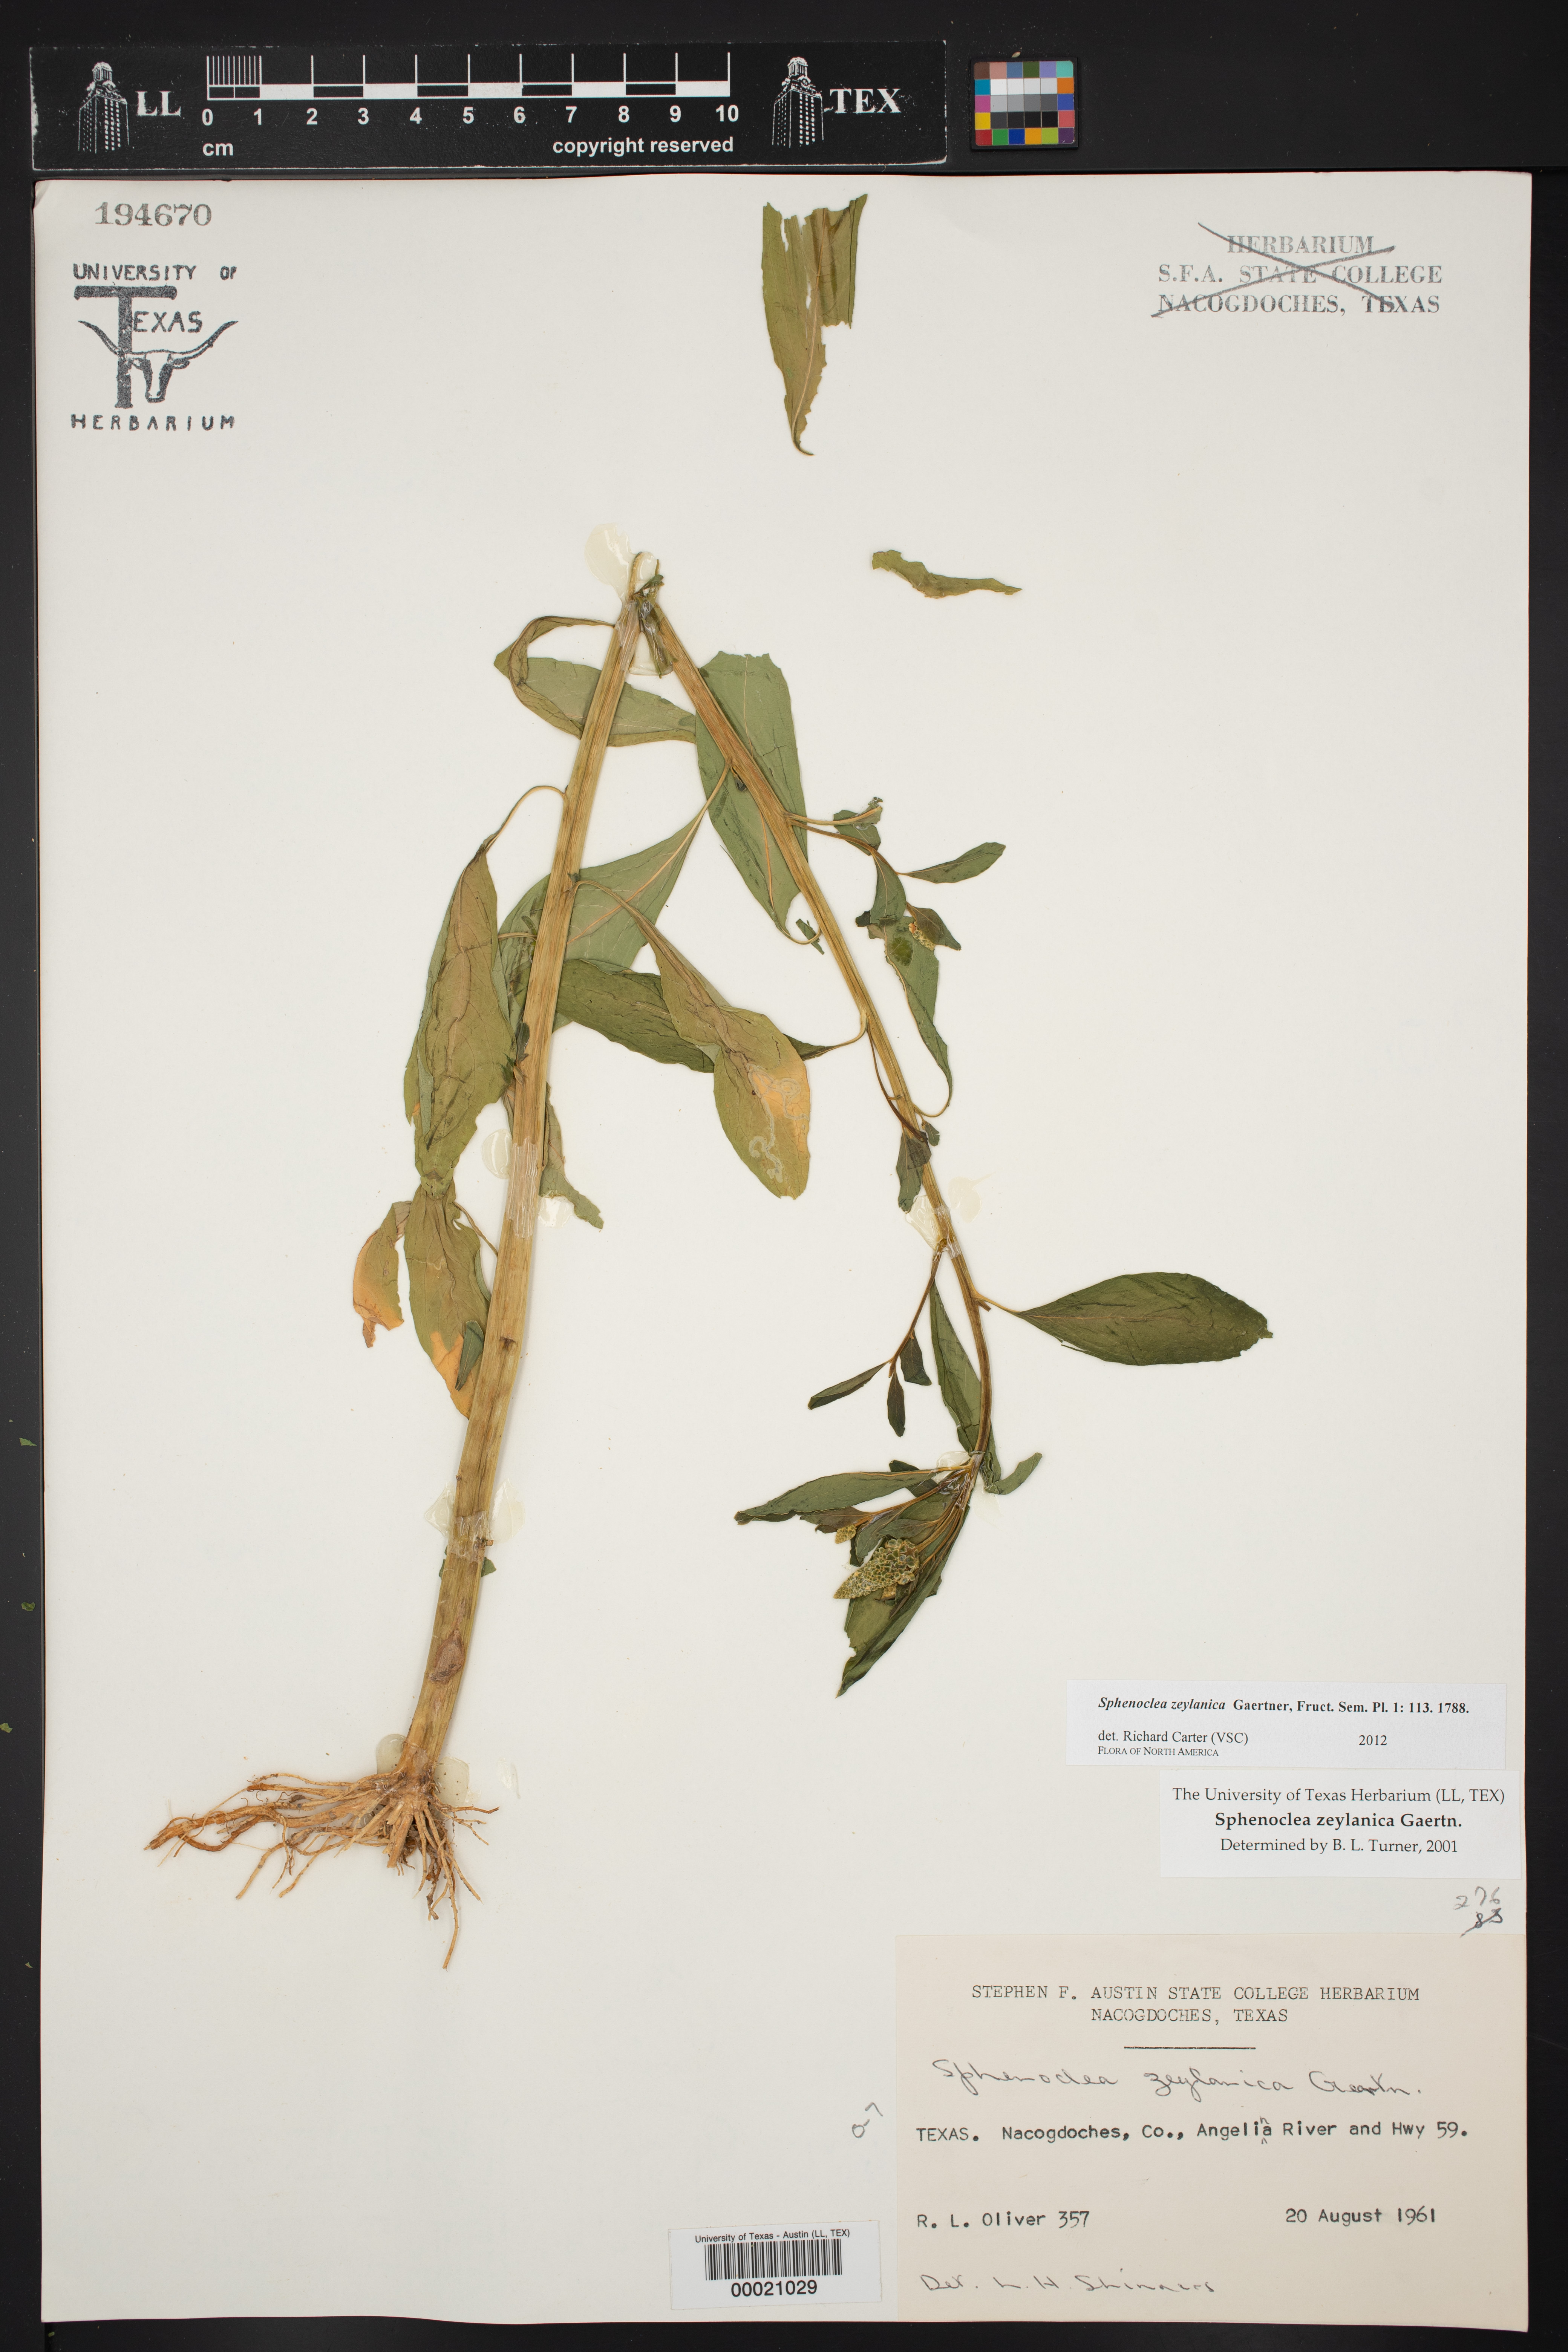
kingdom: Plantae
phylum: Tracheophyta
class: Magnoliopsida
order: Solanales
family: Sphenocleaceae
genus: Sphenoclea
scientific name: Sphenoclea zeylanica
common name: Chickenspike
